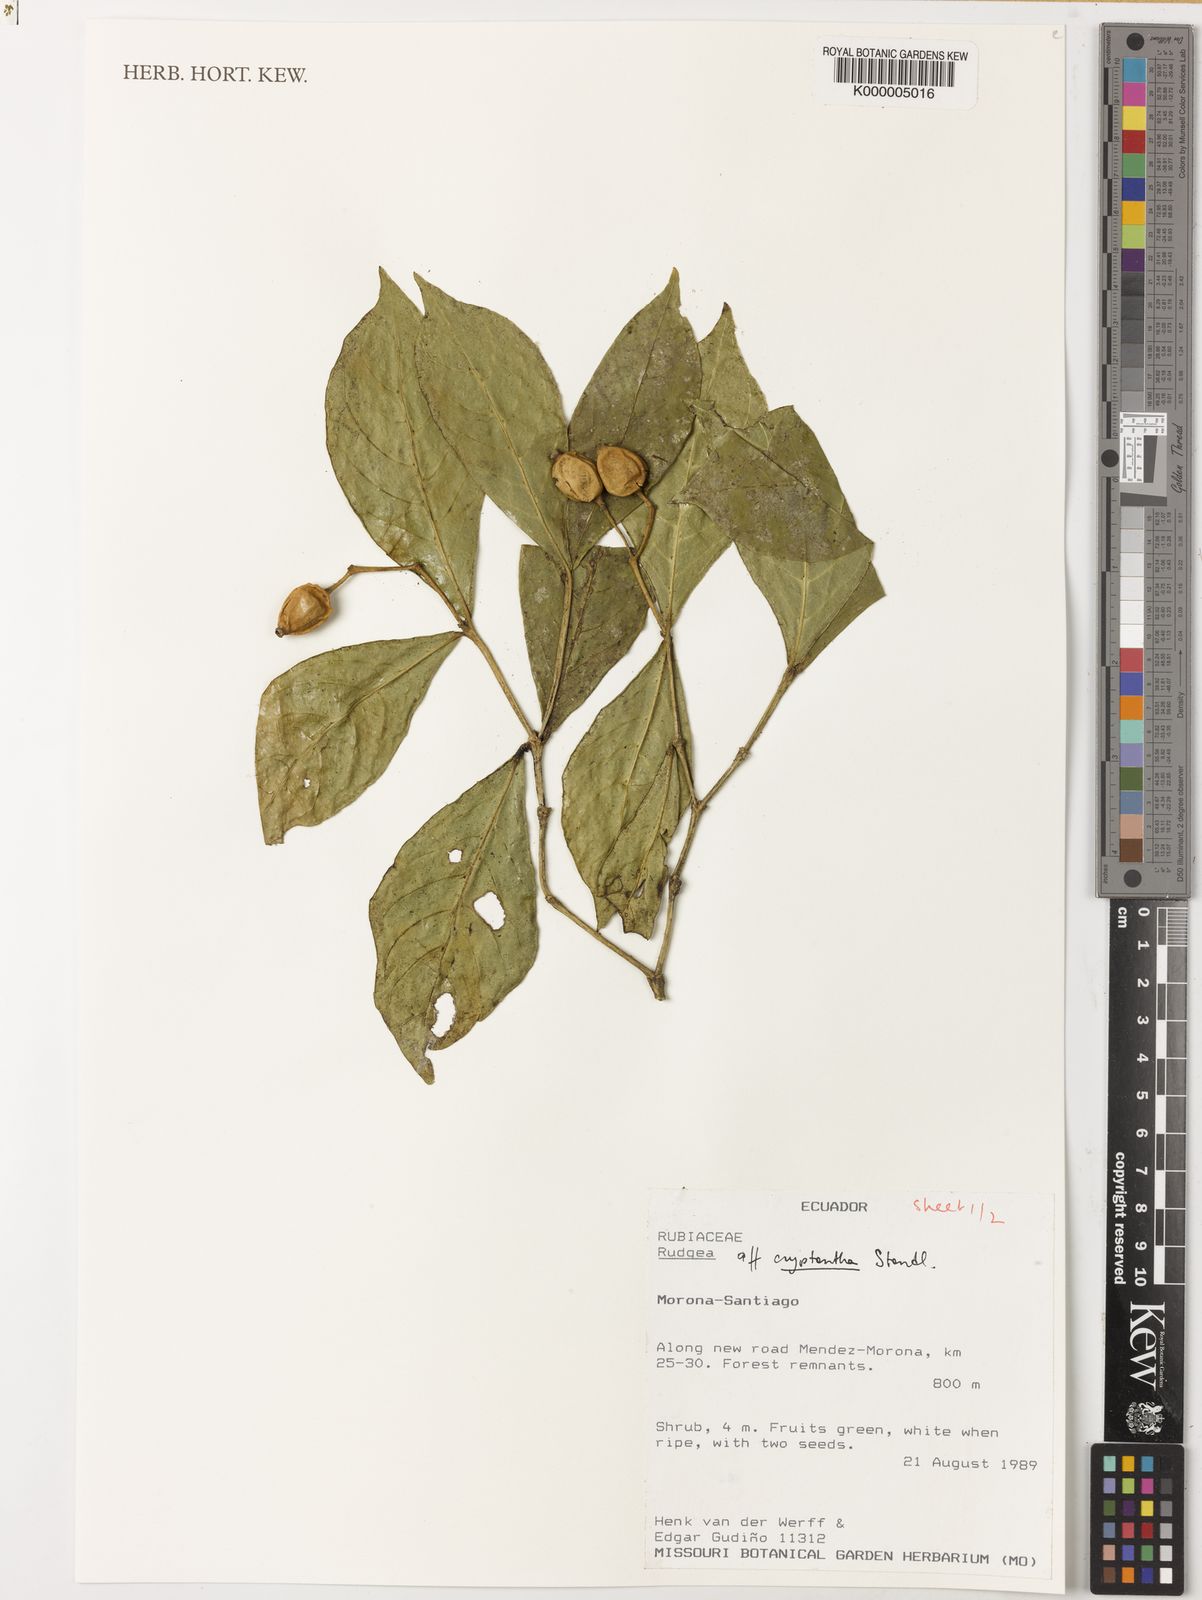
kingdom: Plantae
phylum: Tracheophyta
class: Magnoliopsida
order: Gentianales
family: Rubiaceae
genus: Rudgea
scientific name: Rudgea cryptantha
